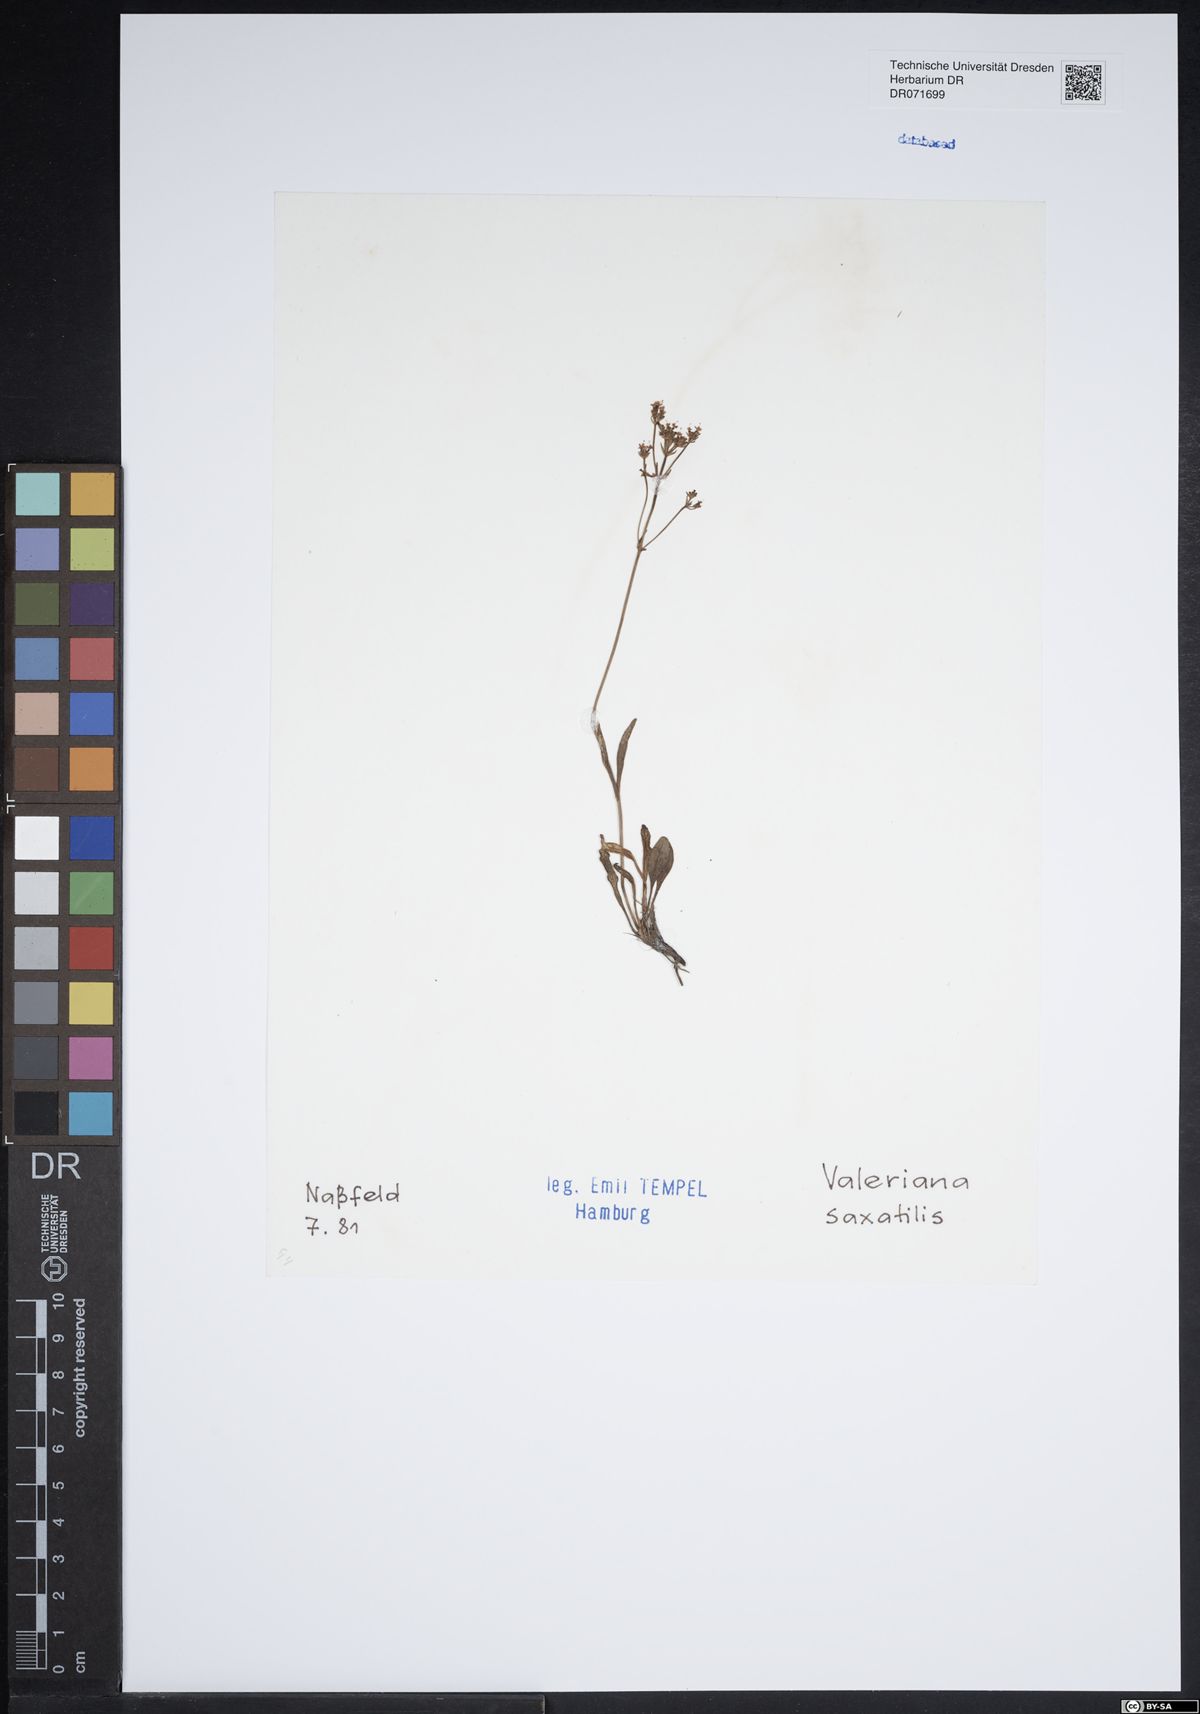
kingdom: Plantae
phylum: Tracheophyta
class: Magnoliopsida
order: Dipsacales
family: Caprifoliaceae
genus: Valeriana
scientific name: Valeriana saxatilis
